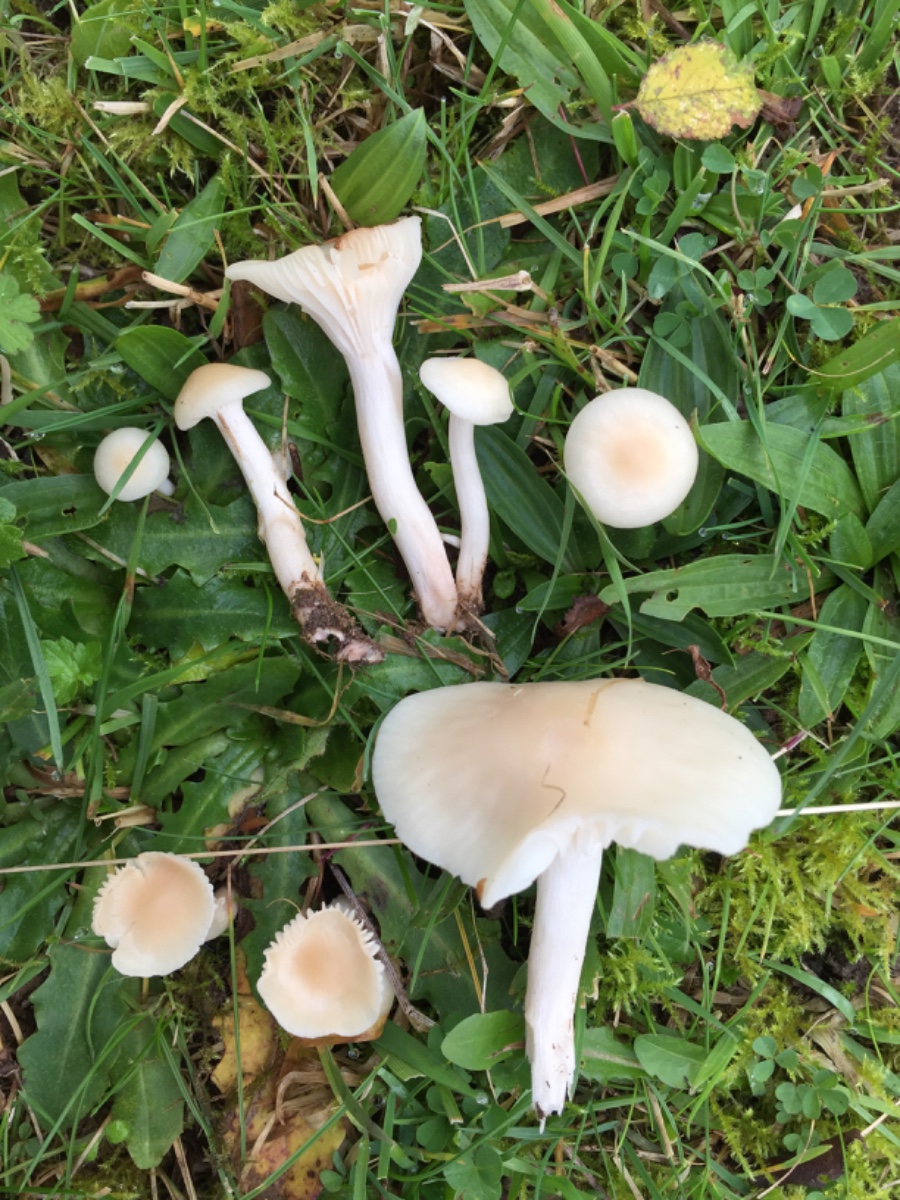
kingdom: Fungi
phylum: Basidiomycota
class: Agaricomycetes
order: Agaricales
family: Hygrophoraceae
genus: Cuphophyllus
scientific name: Cuphophyllus virgineus
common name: snehvid vokshat
